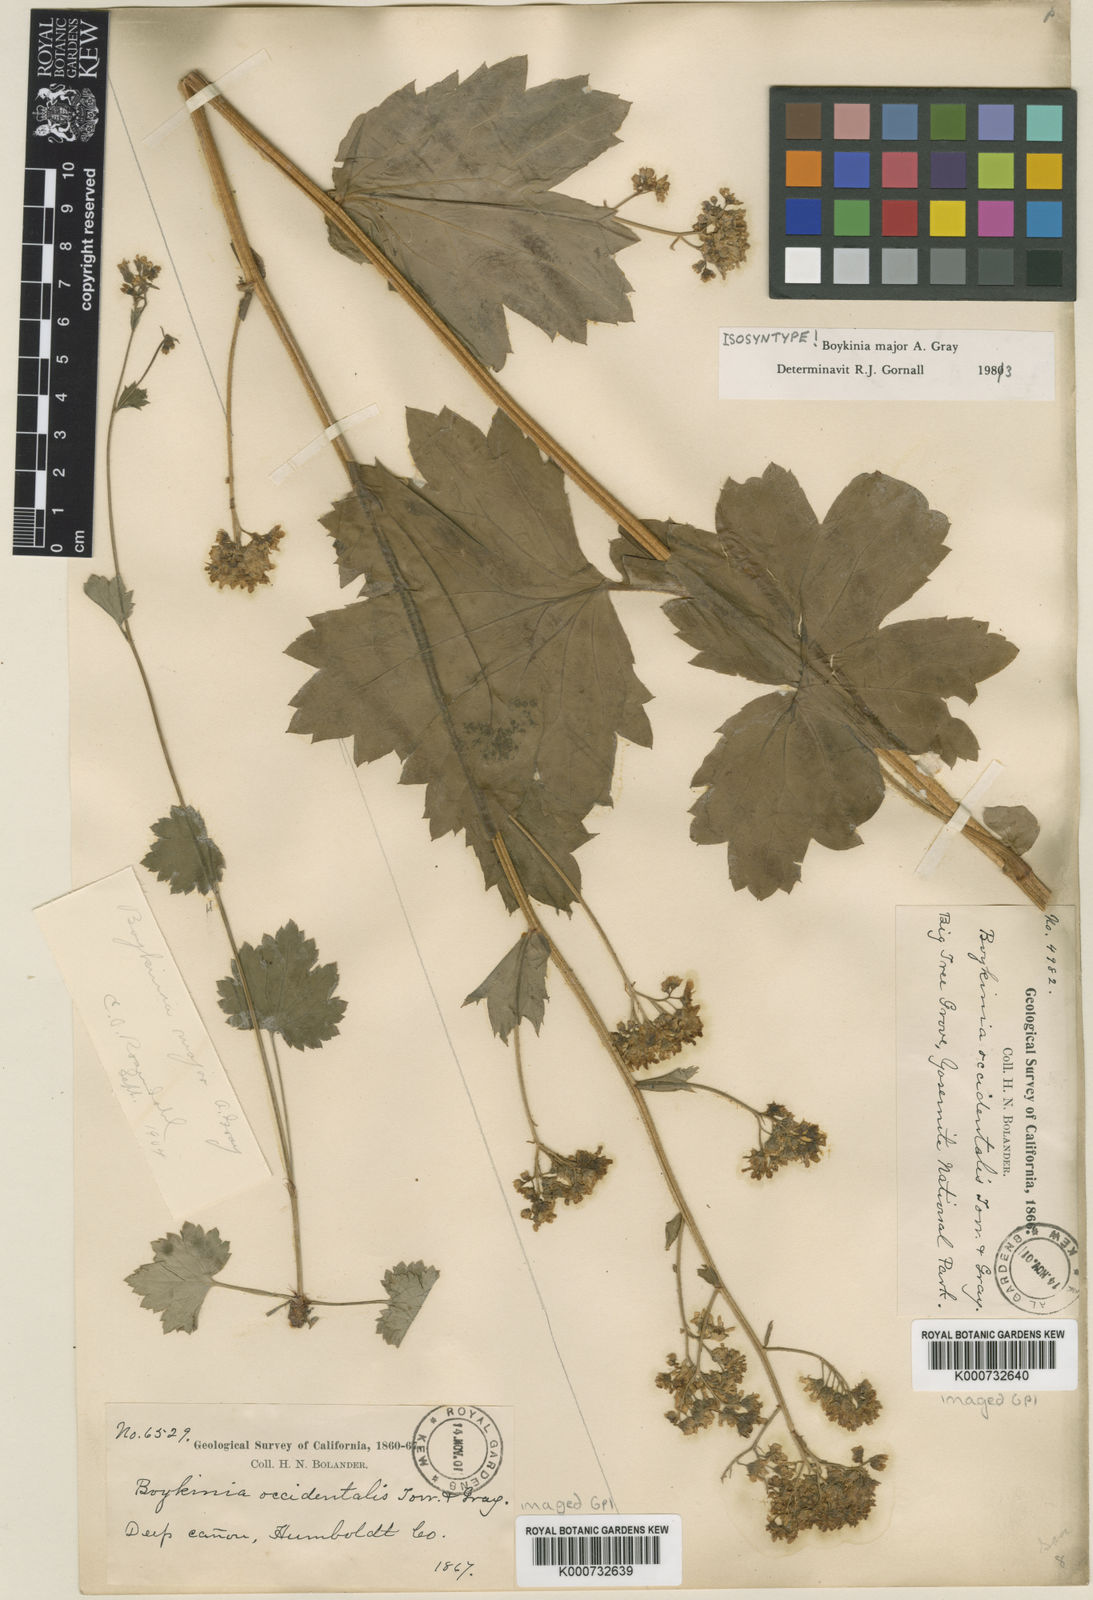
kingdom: Plantae
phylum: Tracheophyta
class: Magnoliopsida
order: Saxifragales
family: Saxifragaceae
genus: Boykinia
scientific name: Boykinia major
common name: Large boykinia
